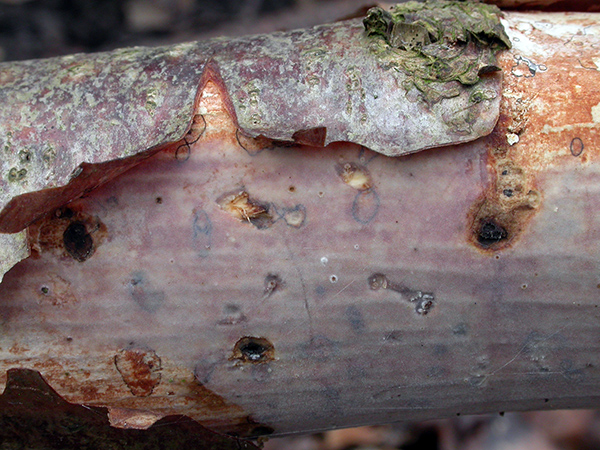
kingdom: Fungi
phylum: Basidiomycota
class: Agaricomycetes
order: Corticiales
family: Vuilleminiaceae
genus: Vuilleminia
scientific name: Vuilleminia coryli
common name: hassel-barksprænger
